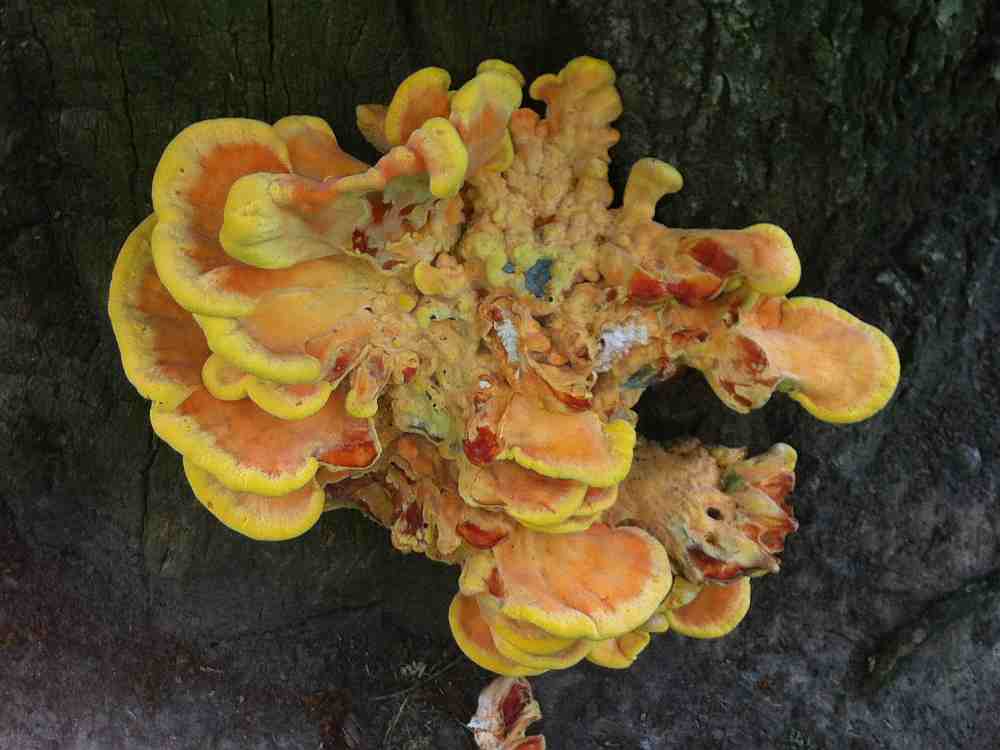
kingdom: Fungi
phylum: Basidiomycota
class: Agaricomycetes
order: Polyporales
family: Laetiporaceae
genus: Laetiporus
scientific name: Laetiporus sulphureus
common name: svovlporesvamp
